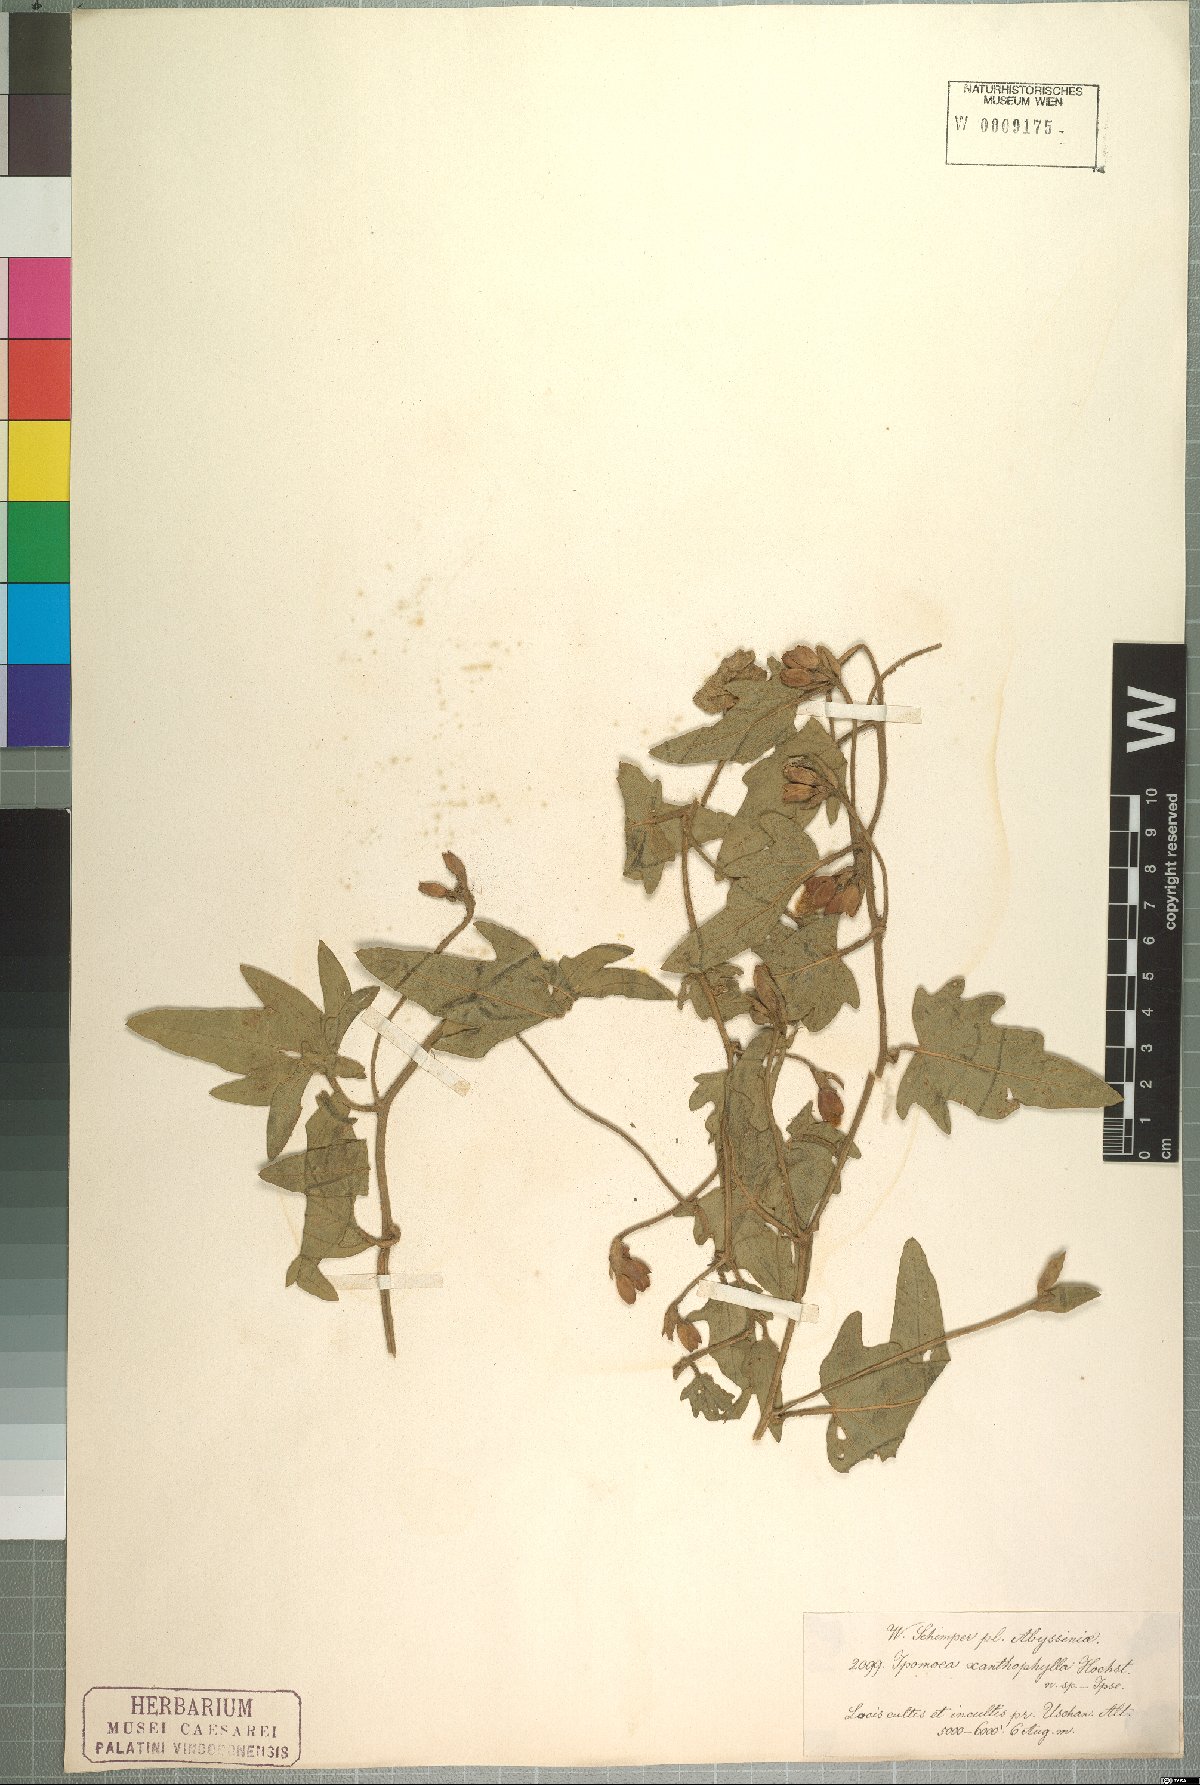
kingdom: Plantae
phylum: Tracheophyta
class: Magnoliopsida
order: Solanales
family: Convolvulaceae
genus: Merremia
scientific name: Merremia xanthophylla
